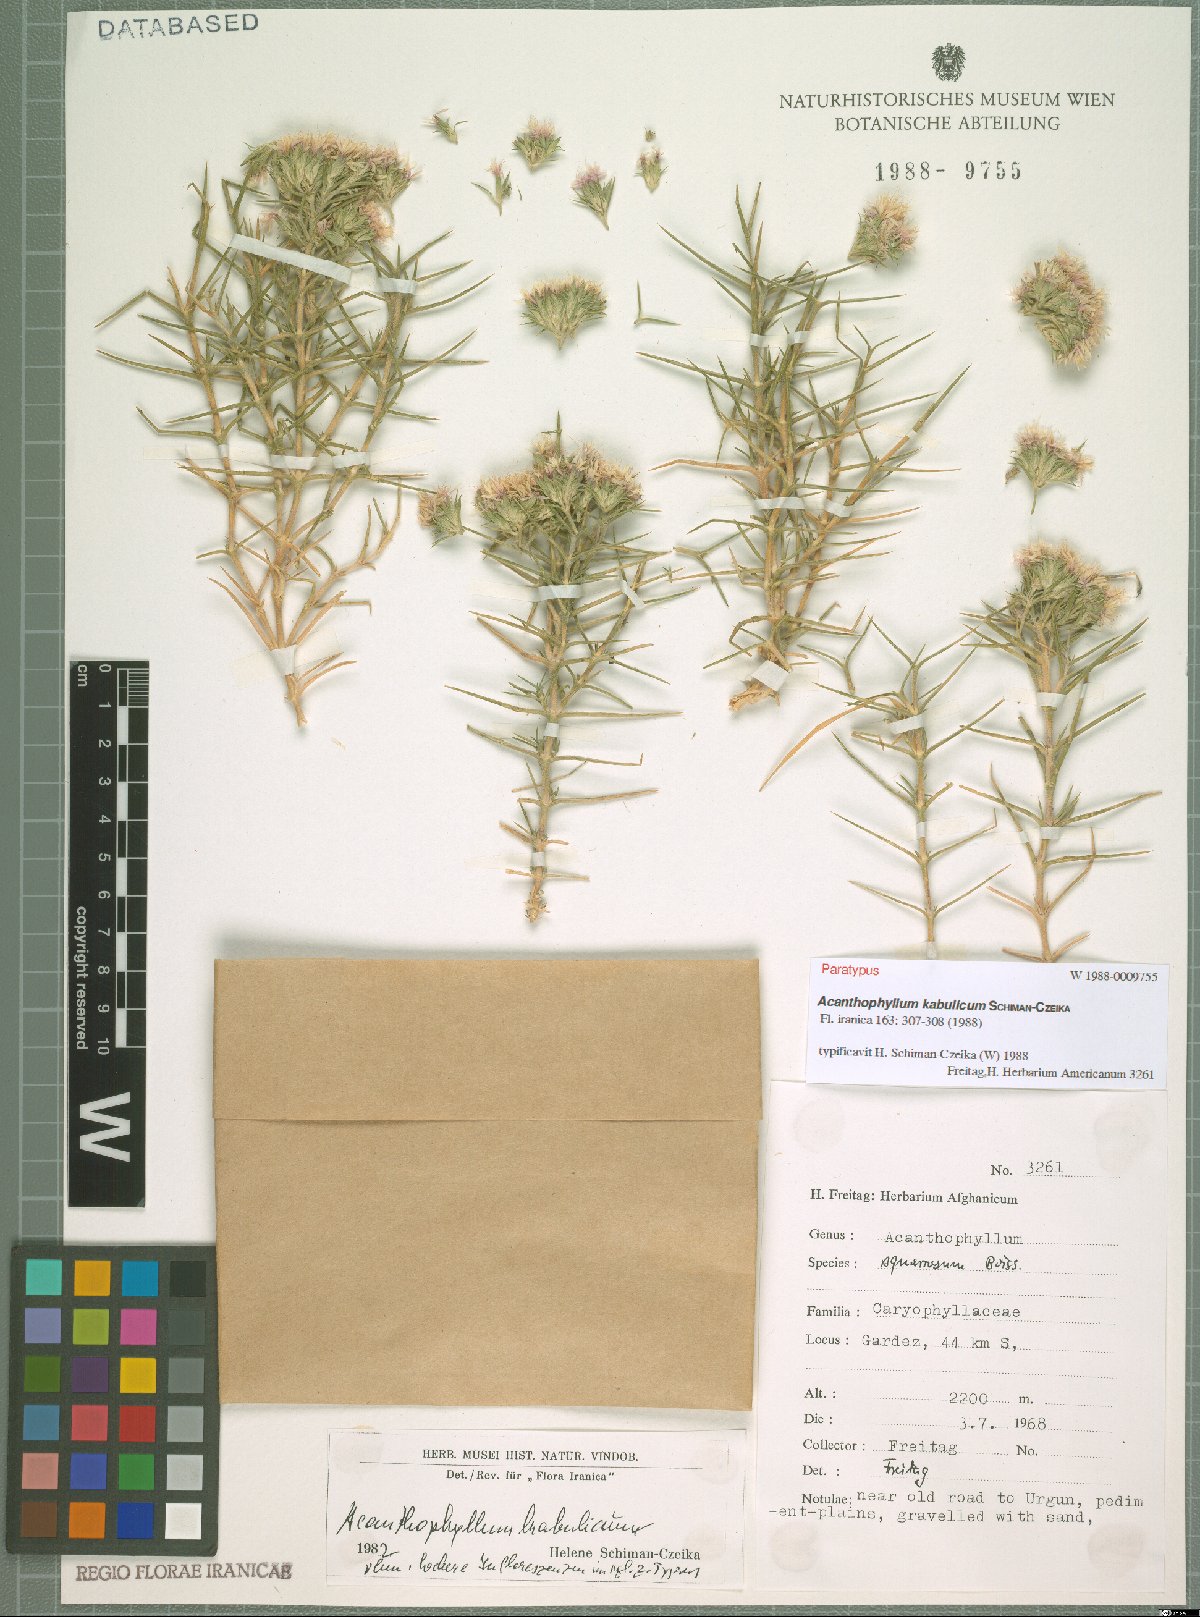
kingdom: Plantae
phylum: Tracheophyta
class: Magnoliopsida
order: Caryophyllales
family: Caryophyllaceae
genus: Acanthophyllum
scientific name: Acanthophyllum kabulicum
